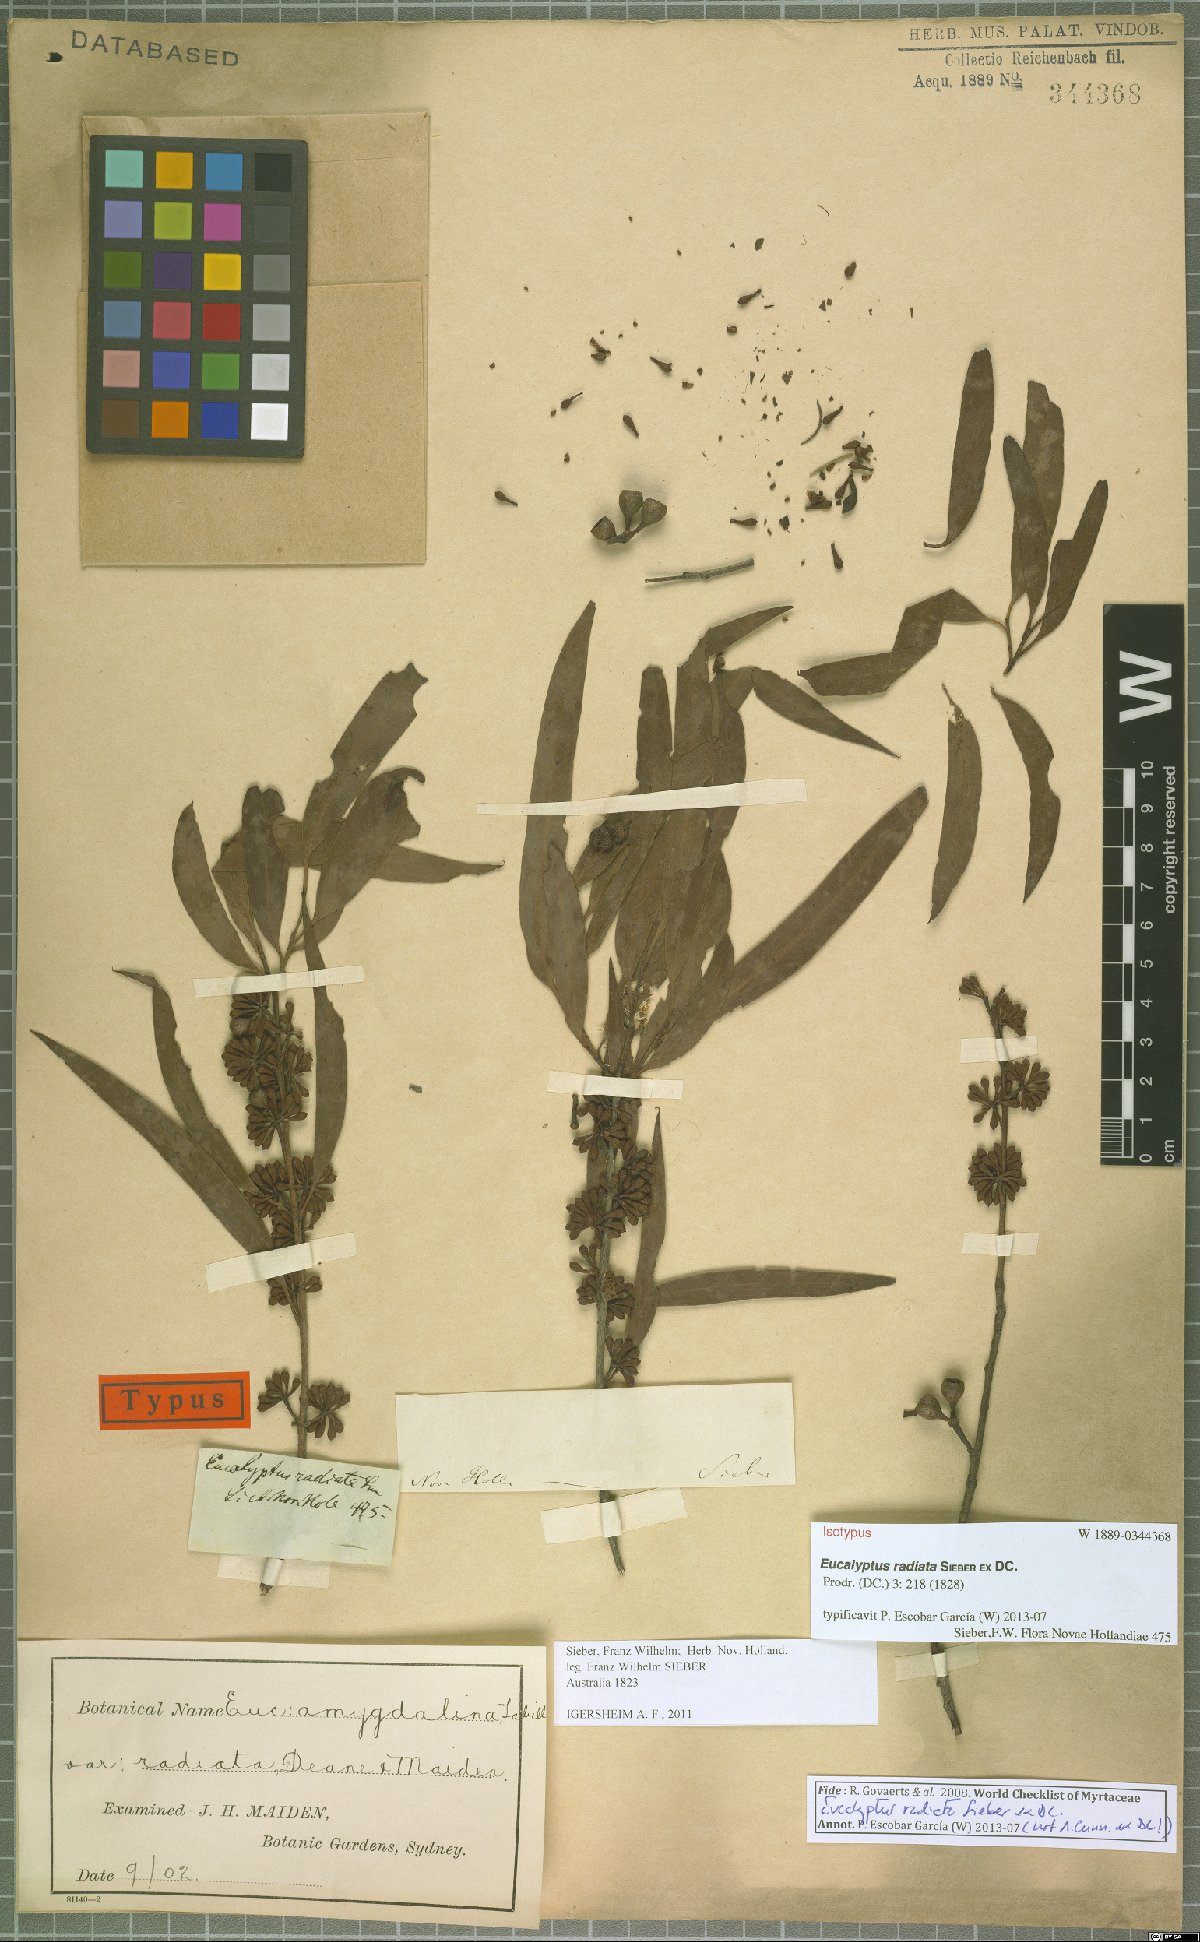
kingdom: Plantae
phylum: Tracheophyta
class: Magnoliopsida
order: Myrtales
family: Myrtaceae
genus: Eucalyptus
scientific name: Eucalyptus radiata
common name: Narrow-leaved-peppermint
